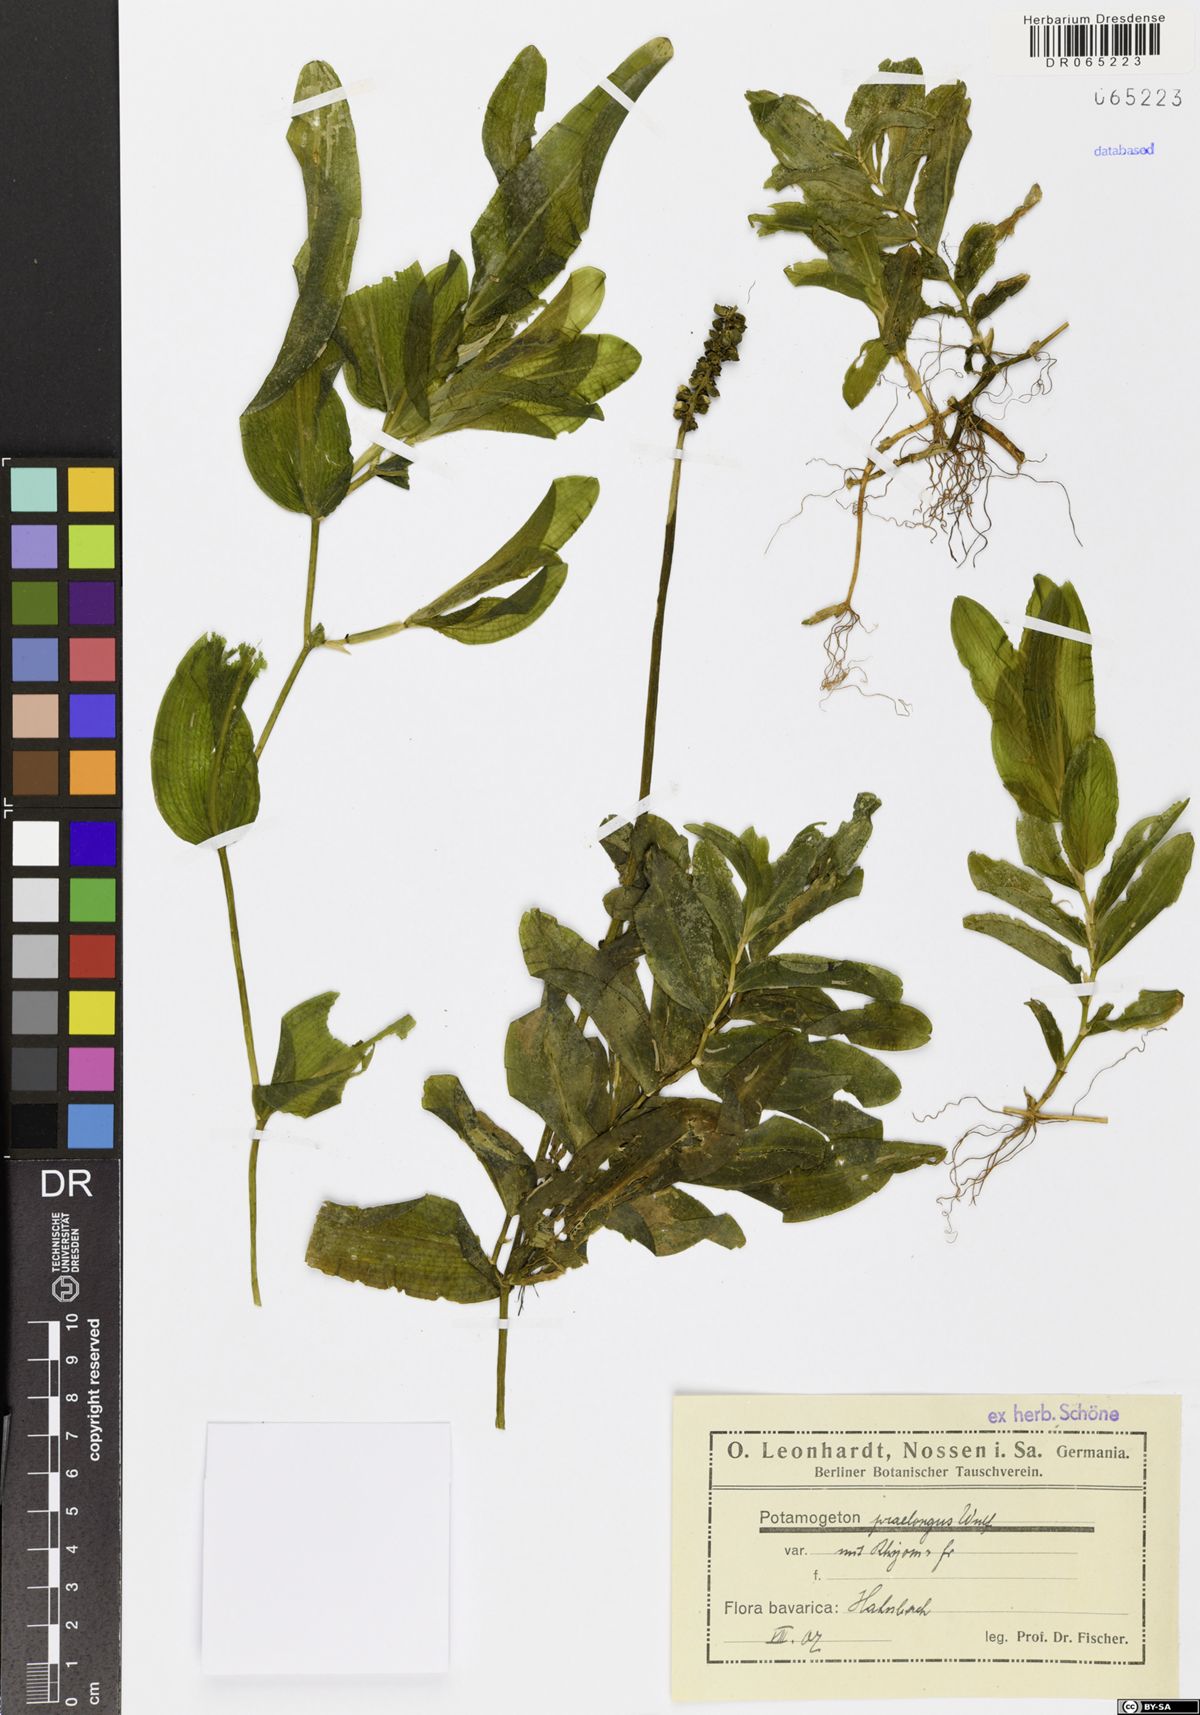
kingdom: Plantae
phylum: Tracheophyta
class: Liliopsida
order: Alismatales
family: Potamogetonaceae
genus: Potamogeton
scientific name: Potamogeton praelongus
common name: Long-stalked pondweed
